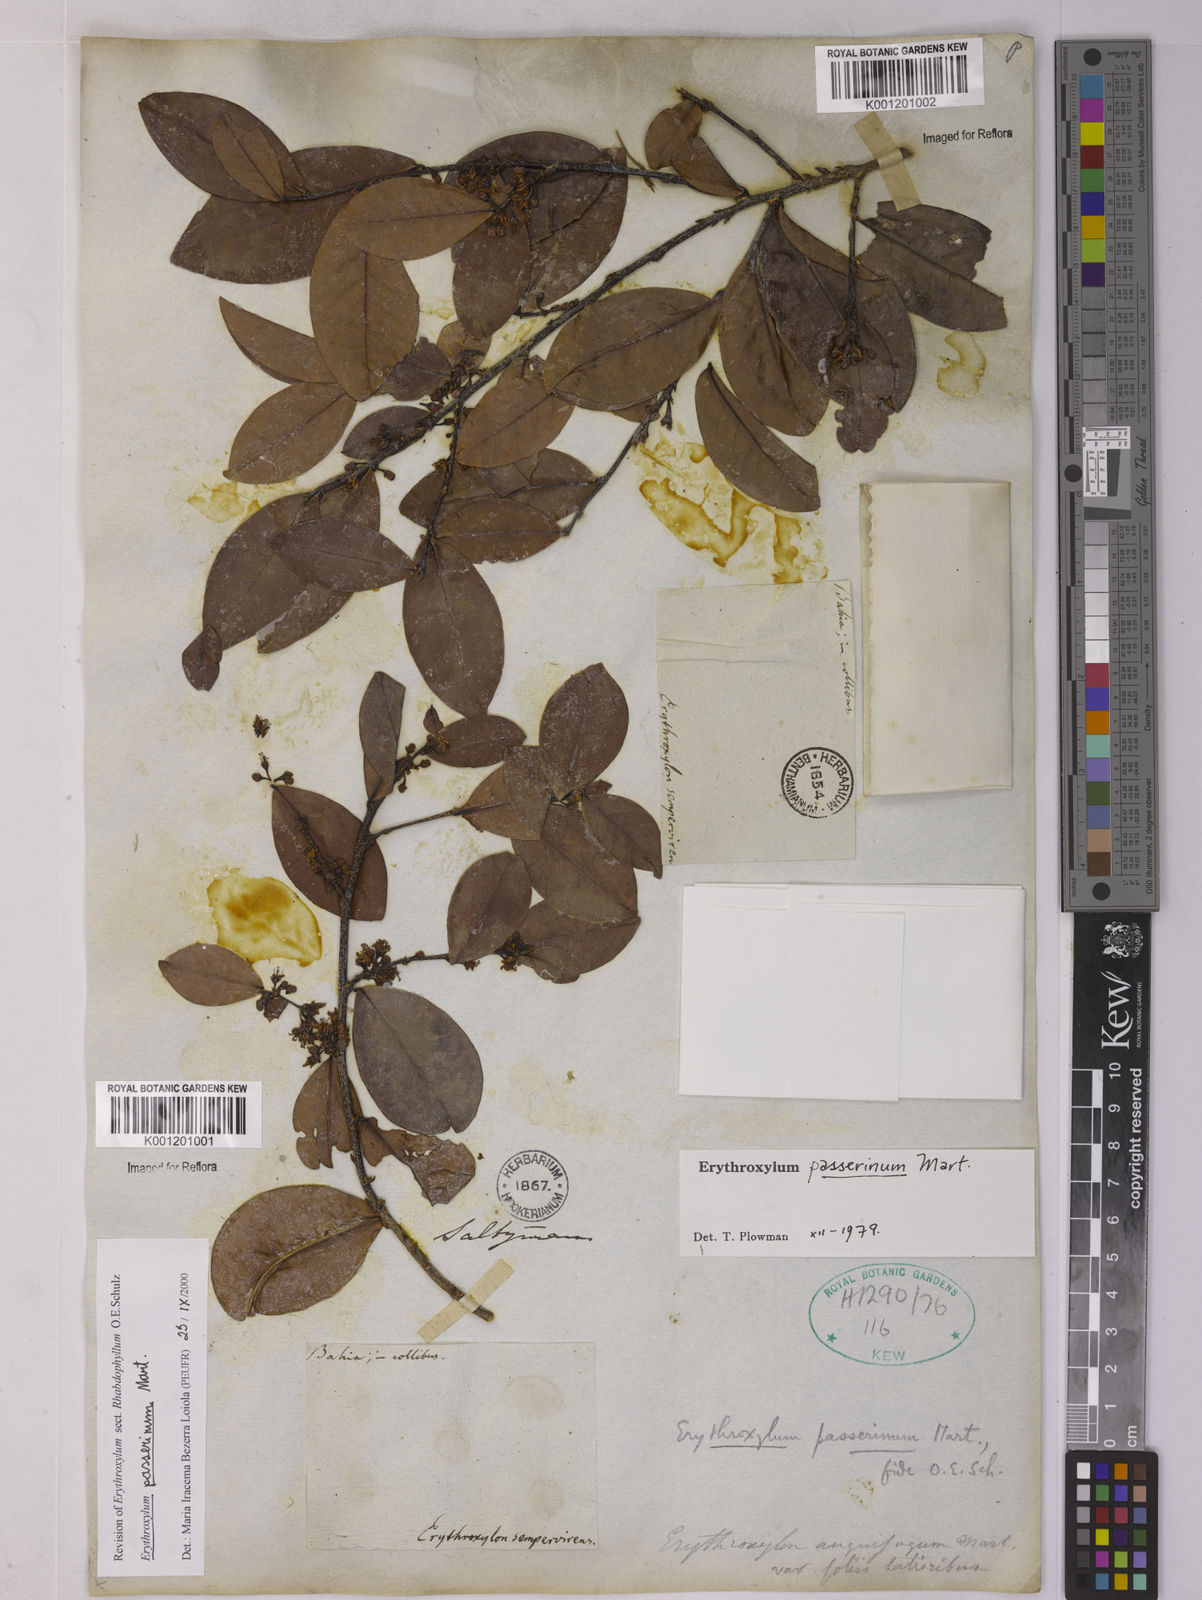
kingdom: Plantae
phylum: Tracheophyta
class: Magnoliopsida
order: Malpighiales
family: Erythroxylaceae
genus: Erythroxylum
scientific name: Erythroxylum passerinum
